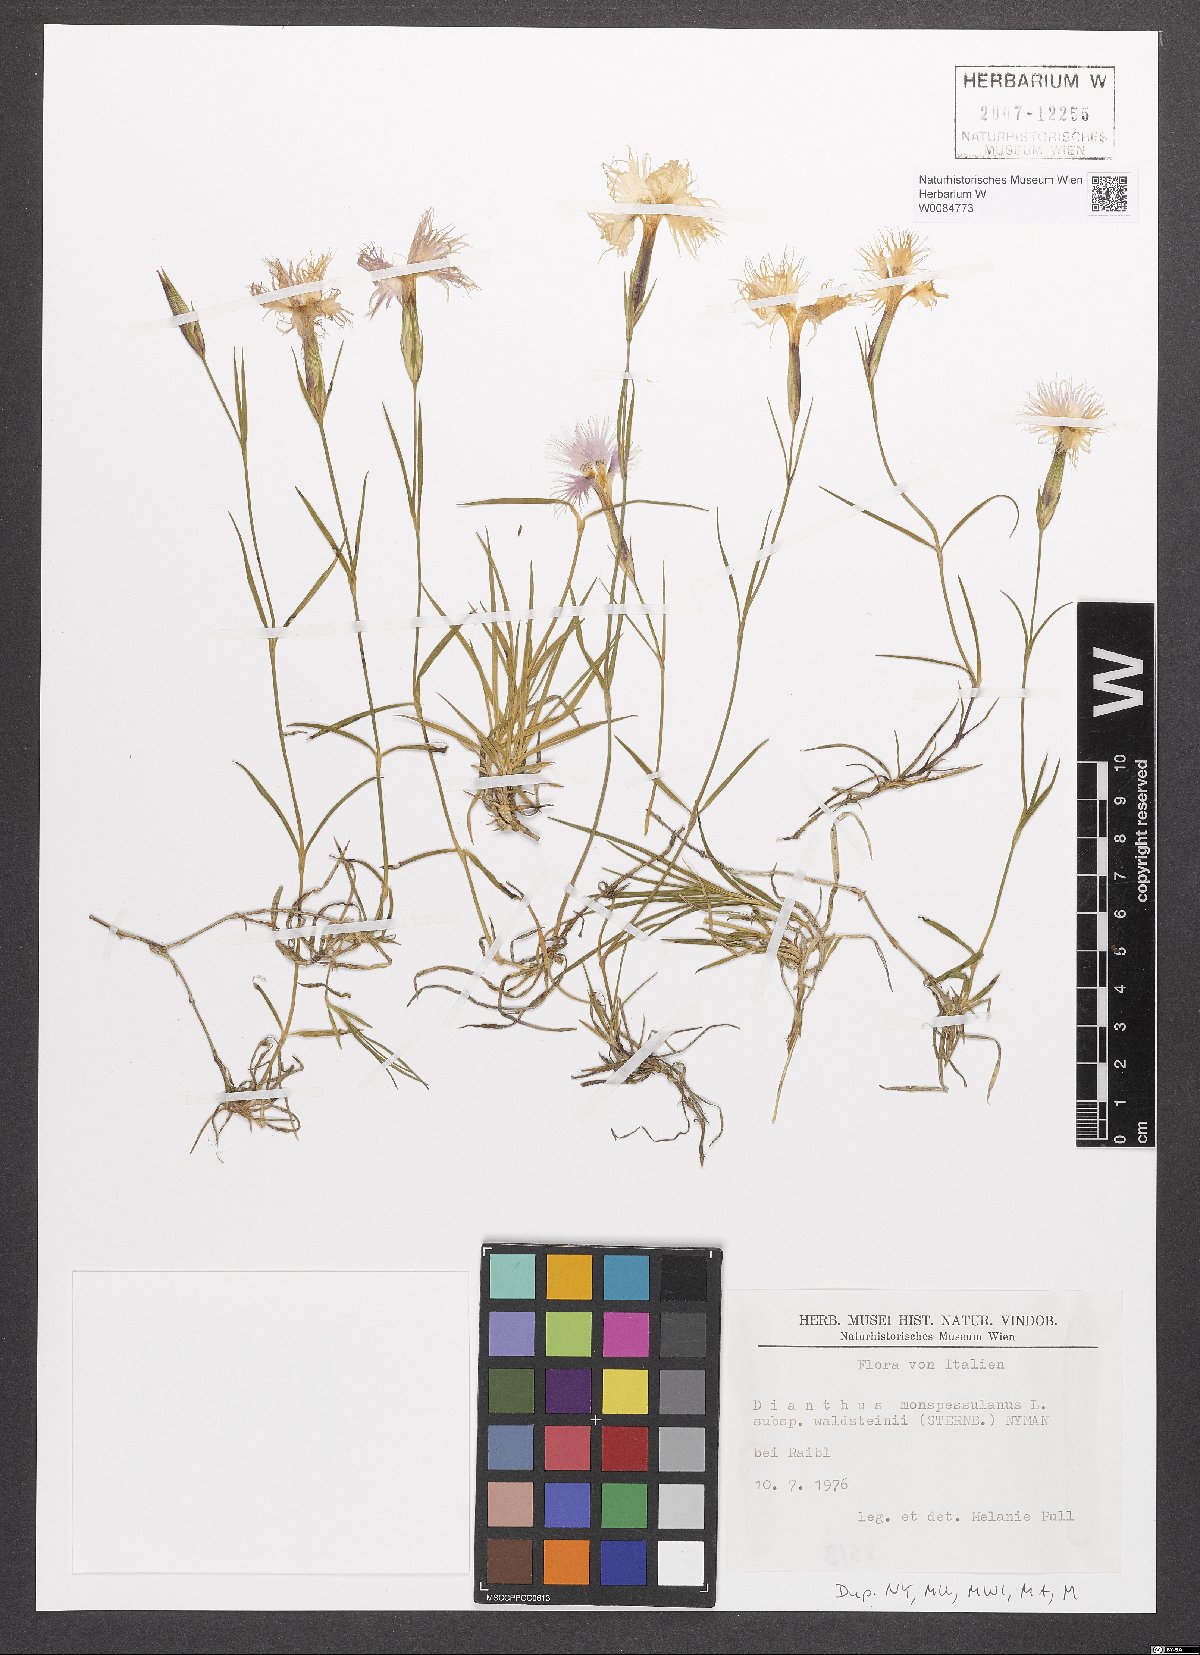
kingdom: Plantae
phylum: Tracheophyta
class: Magnoliopsida
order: Caryophyllales
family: Caryophyllaceae
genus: Dianthus
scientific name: Dianthus monspessulanus
